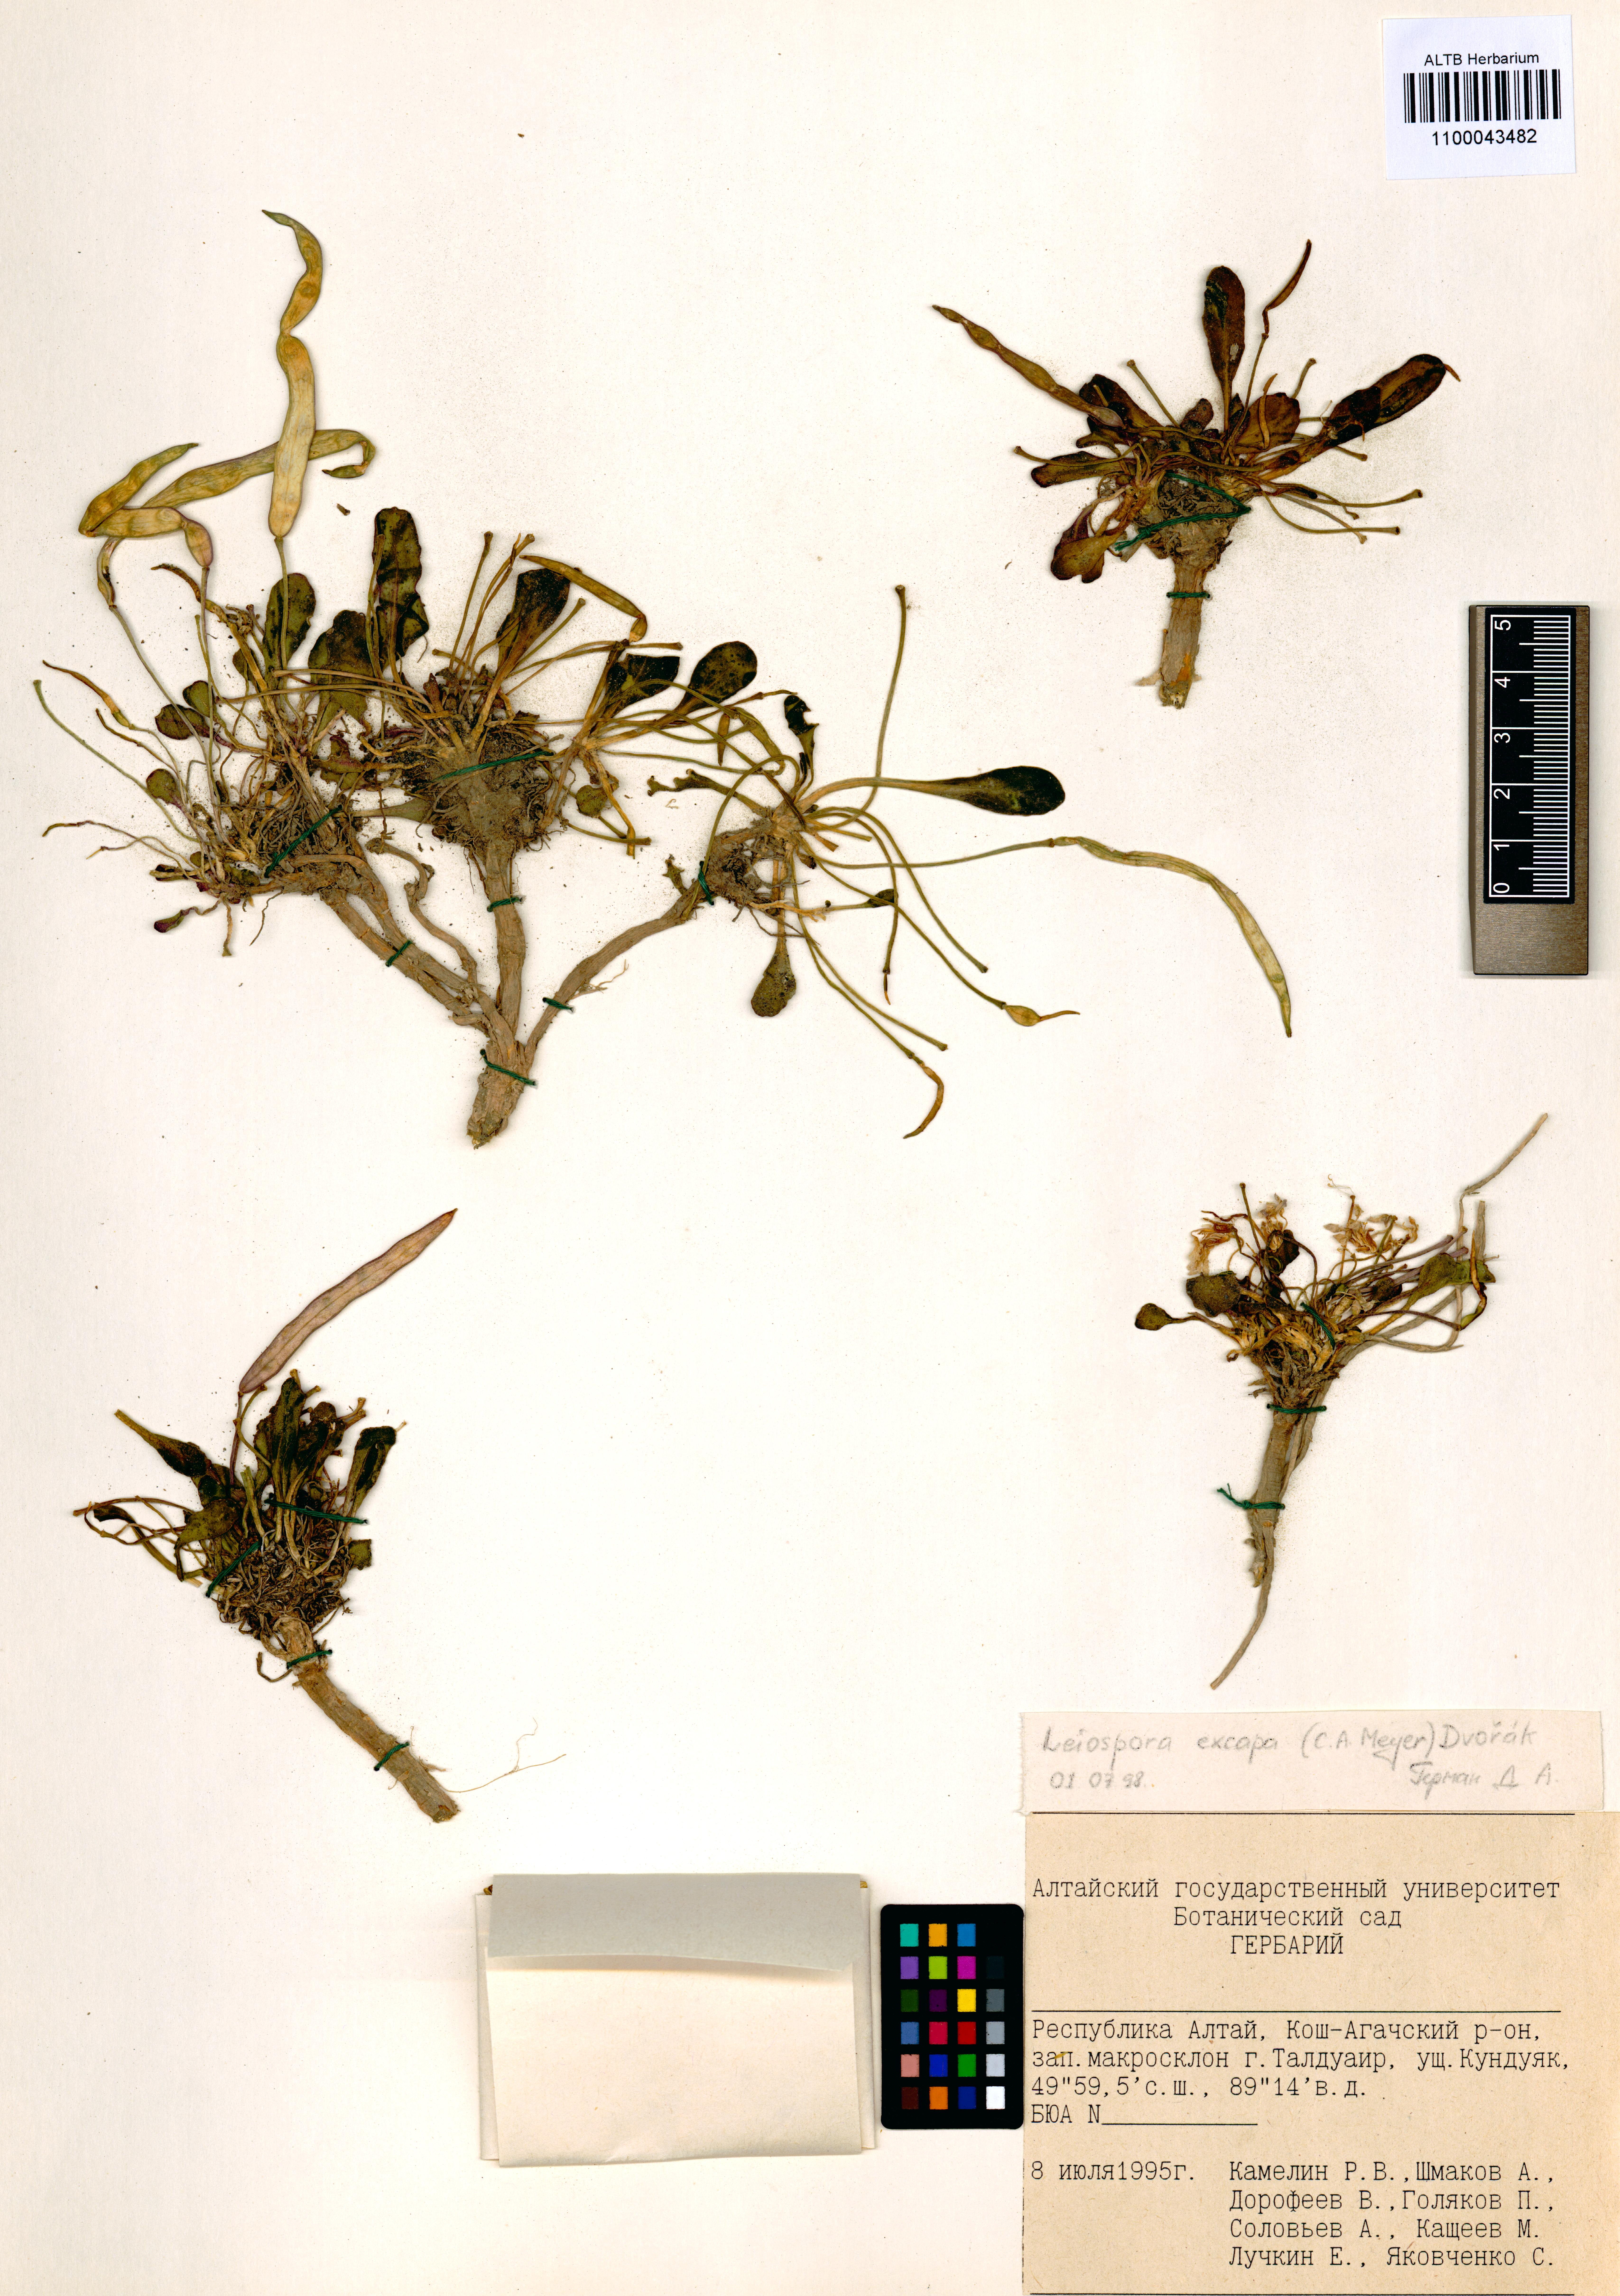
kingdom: Plantae
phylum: Tracheophyta
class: Magnoliopsida
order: Brassicales
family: Brassicaceae
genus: Leiospora
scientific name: Leiospora exscapa
